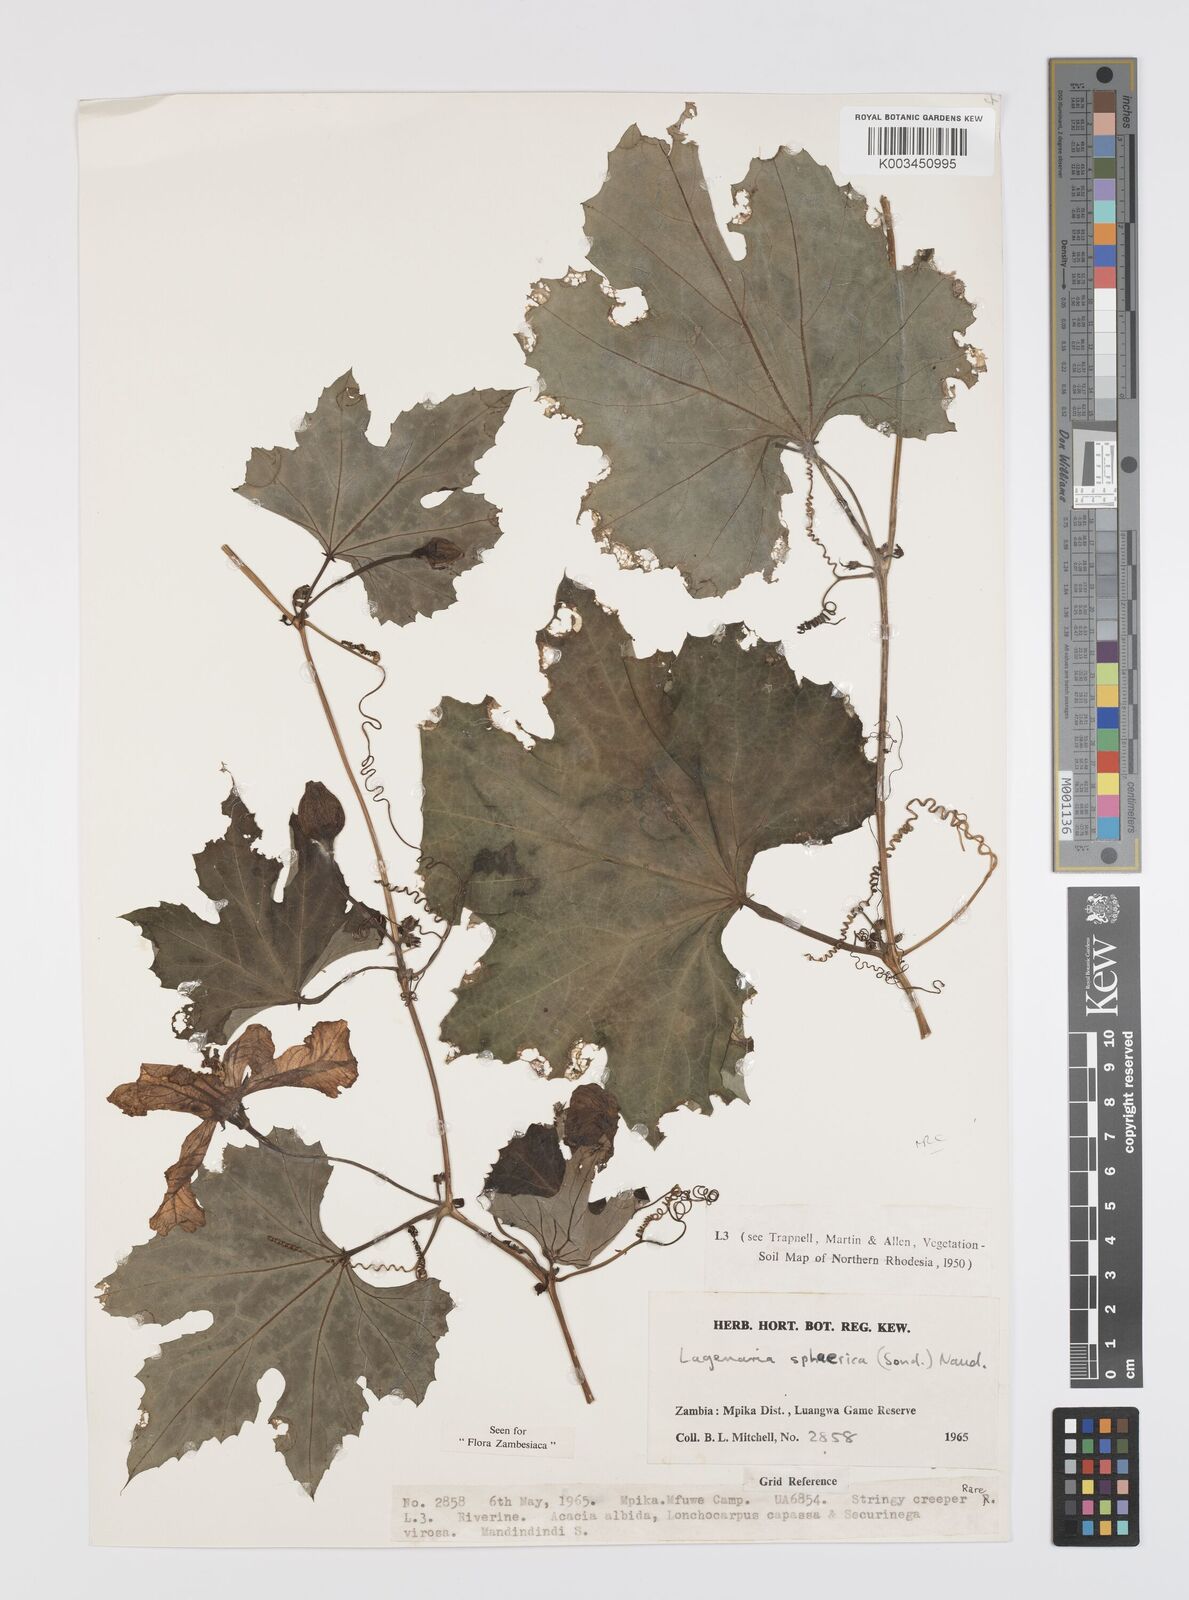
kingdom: Plantae
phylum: Tracheophyta
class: Magnoliopsida
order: Cucurbitales
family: Cucurbitaceae
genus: Lagenaria
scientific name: Lagenaria sphaerica
